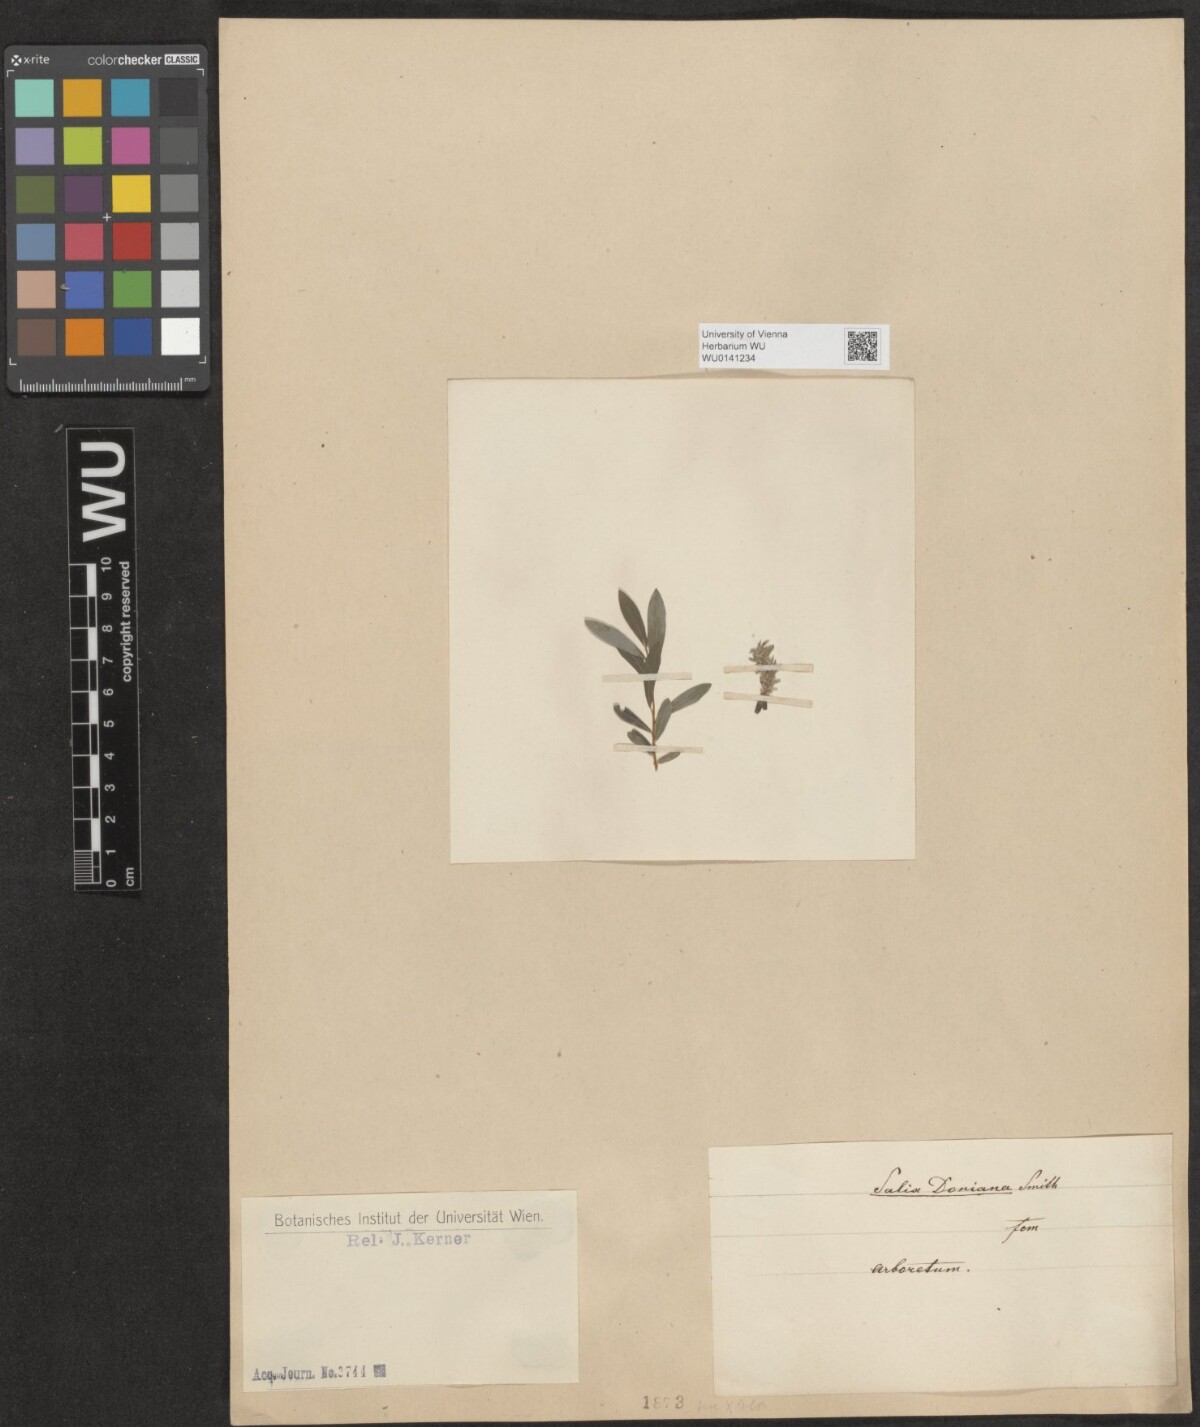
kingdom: Plantae
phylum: Tracheophyta
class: Magnoliopsida
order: Malpighiales
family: Salicaceae
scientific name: Salicaceae
